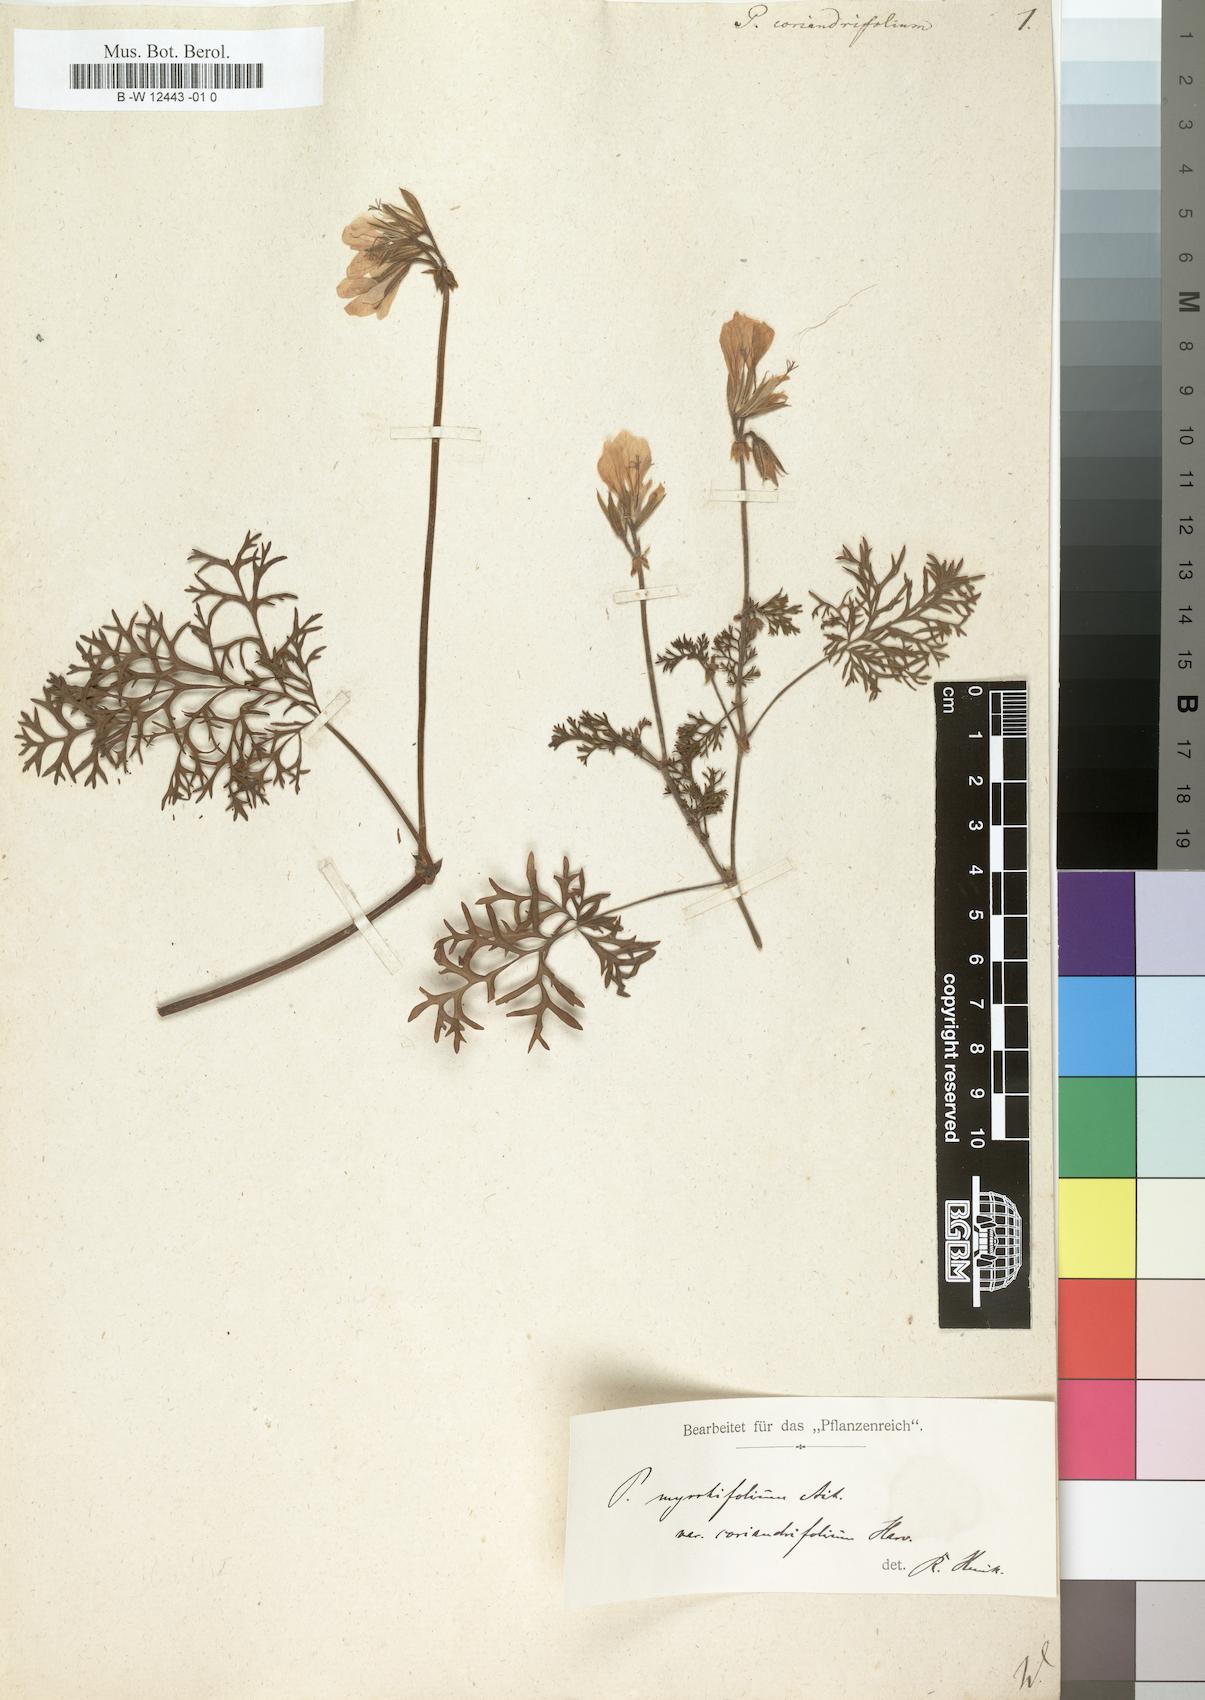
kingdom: Plantae
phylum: Tracheophyta
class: Magnoliopsida
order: Geraniales
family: Geraniaceae
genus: Pelargonium
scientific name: Pelargonium myrrhifolium
